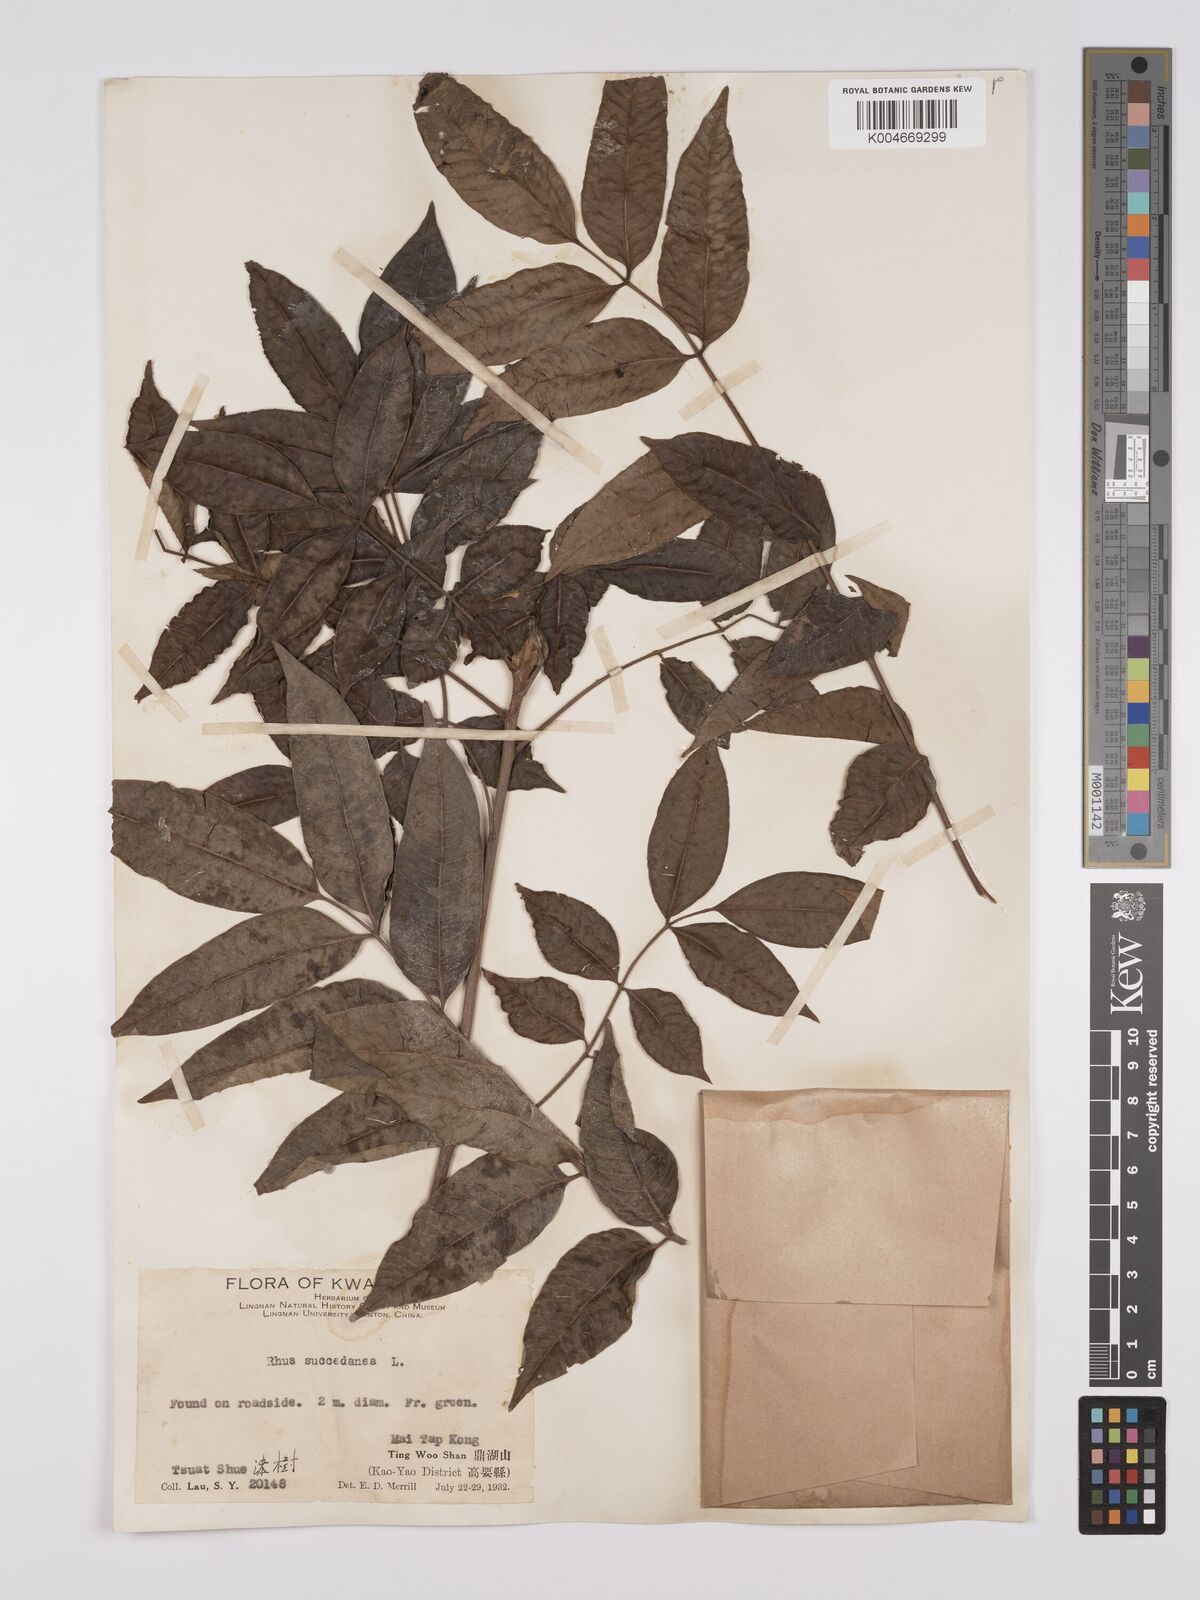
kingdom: Plantae
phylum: Tracheophyta
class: Magnoliopsida
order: Sapindales
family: Anacardiaceae
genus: Toxicodendron
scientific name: Toxicodendron succedaneum
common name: Wax tree
